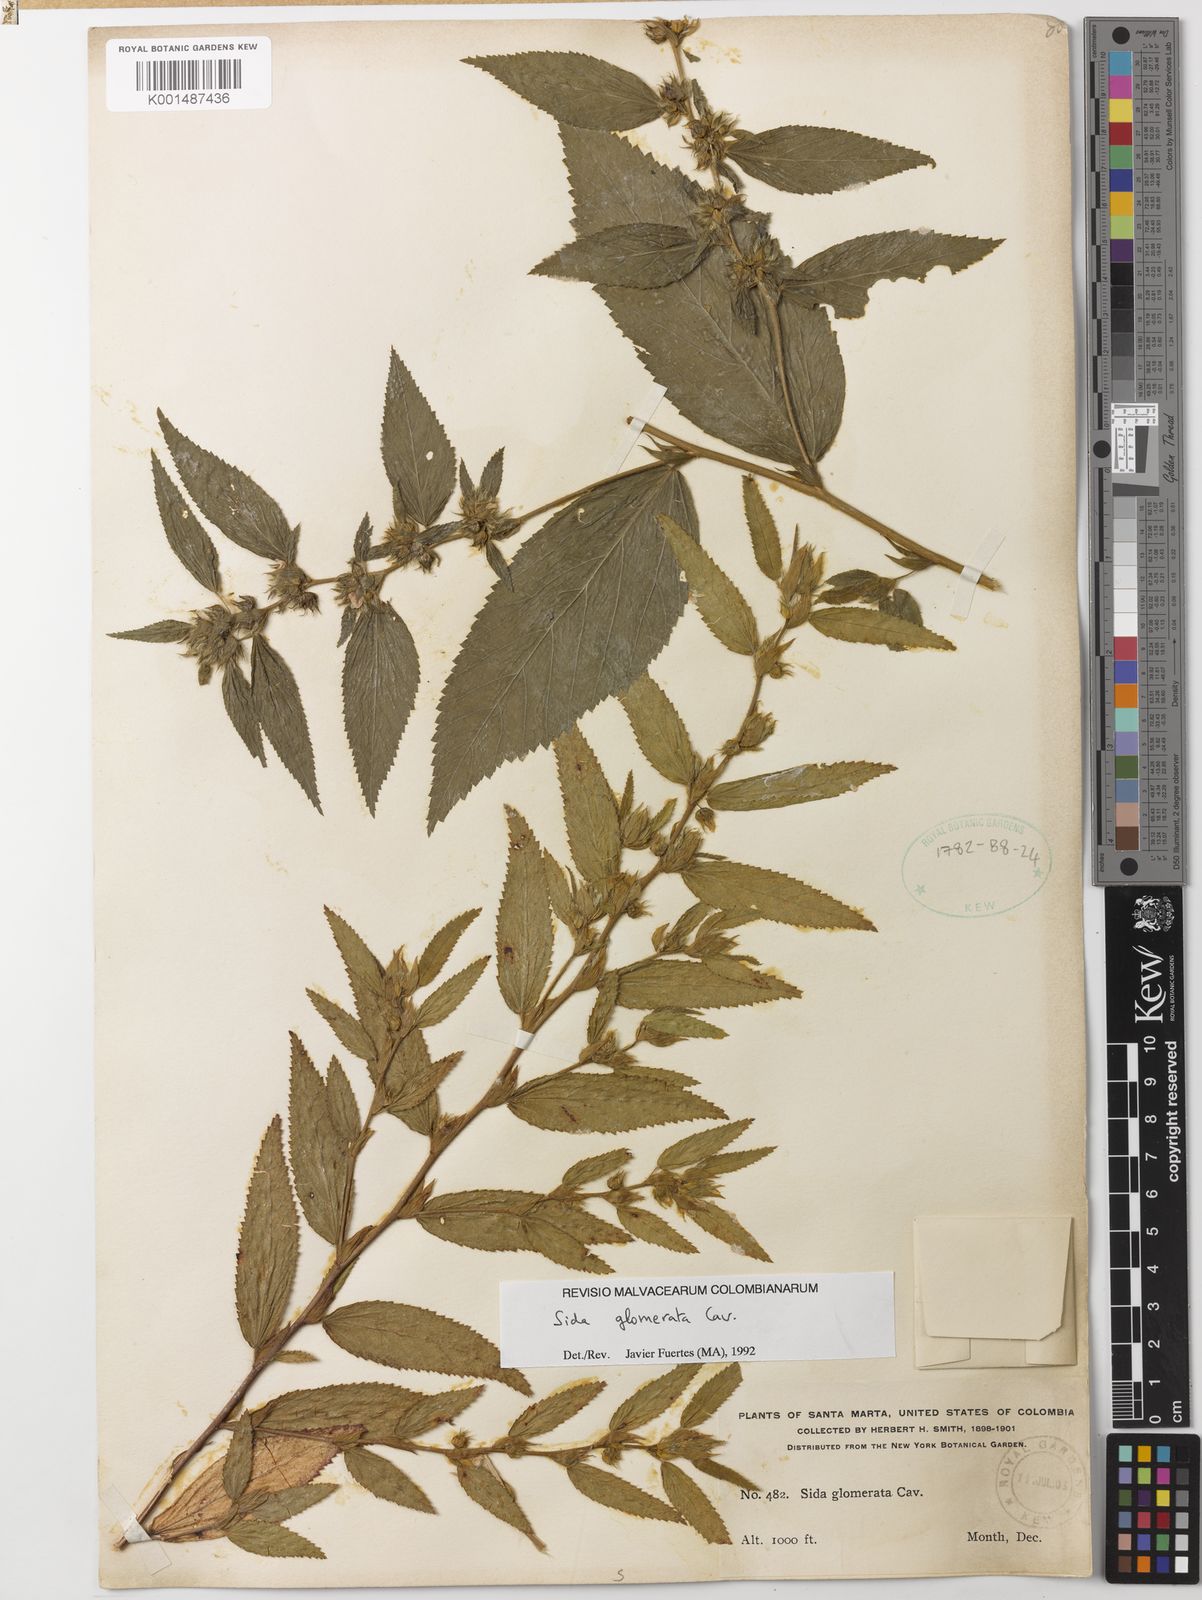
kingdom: Plantae
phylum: Tracheophyta
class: Magnoliopsida
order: Malvales
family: Malvaceae
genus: Sida
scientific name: Sida glomerata
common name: Clustered fanpetals
